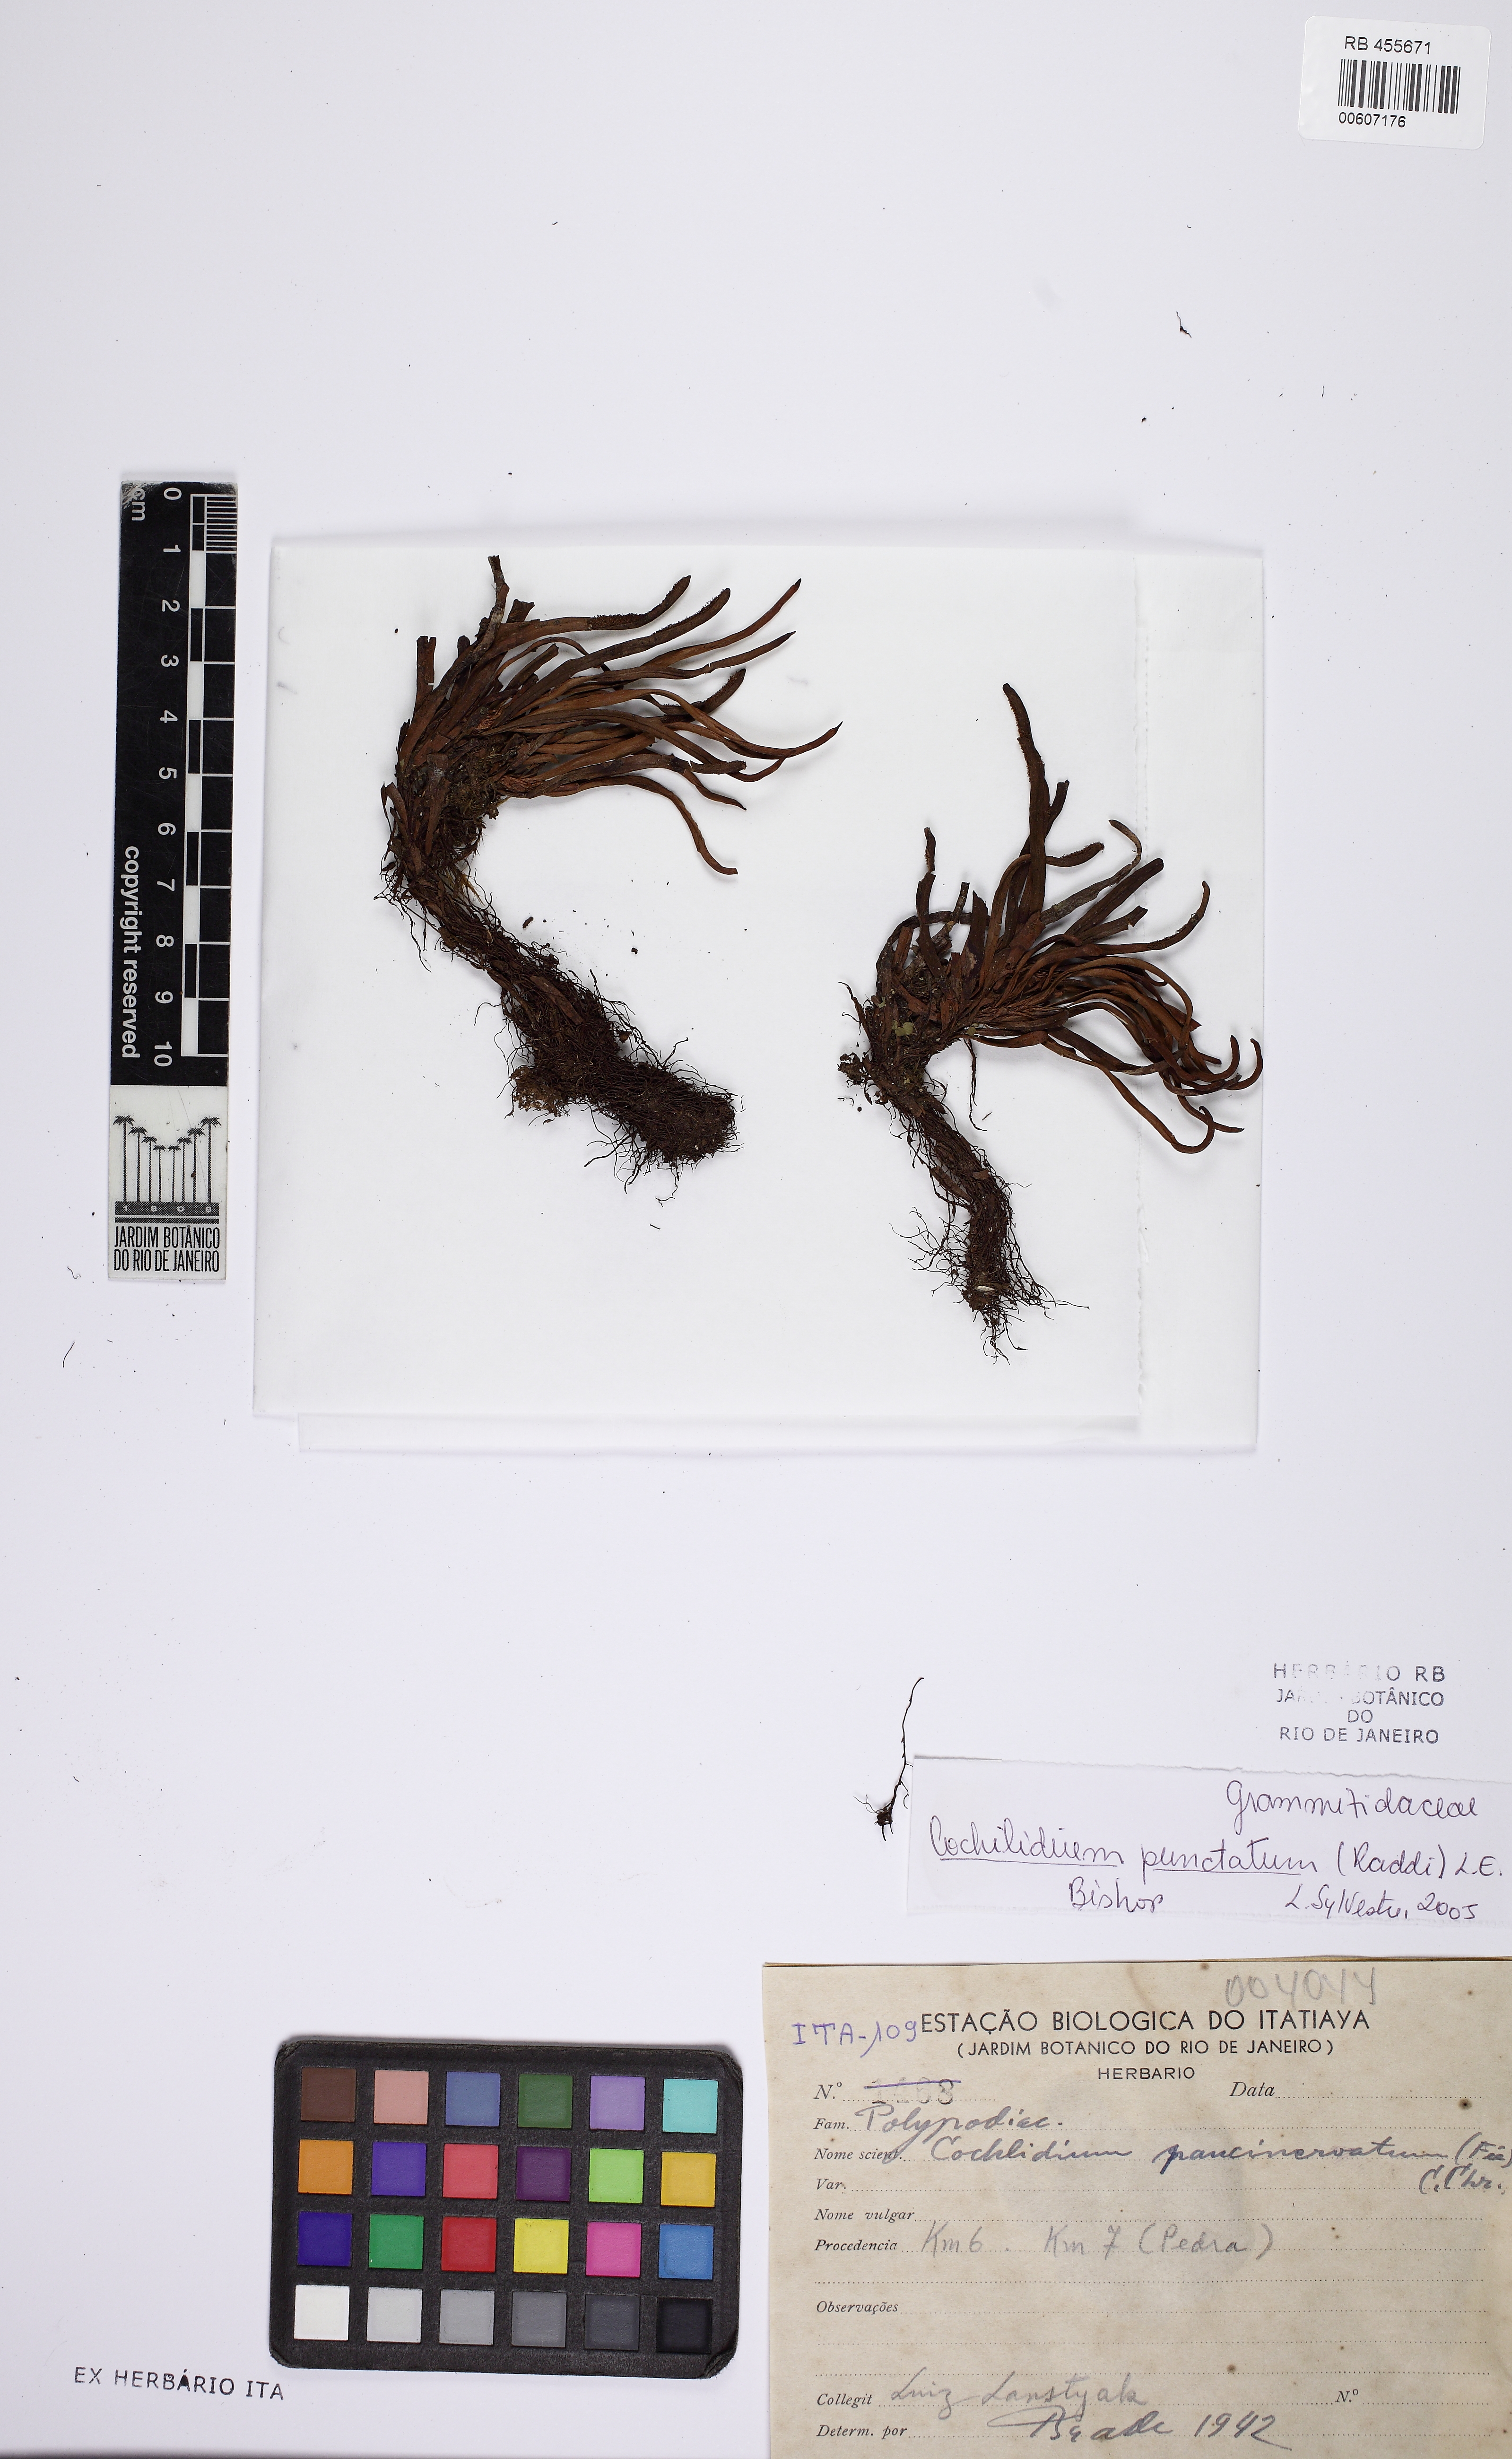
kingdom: Plantae
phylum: Tracheophyta
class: Polypodiopsida
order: Polypodiales
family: Polypodiaceae
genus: Cochlidium
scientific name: Cochlidium punctatum
